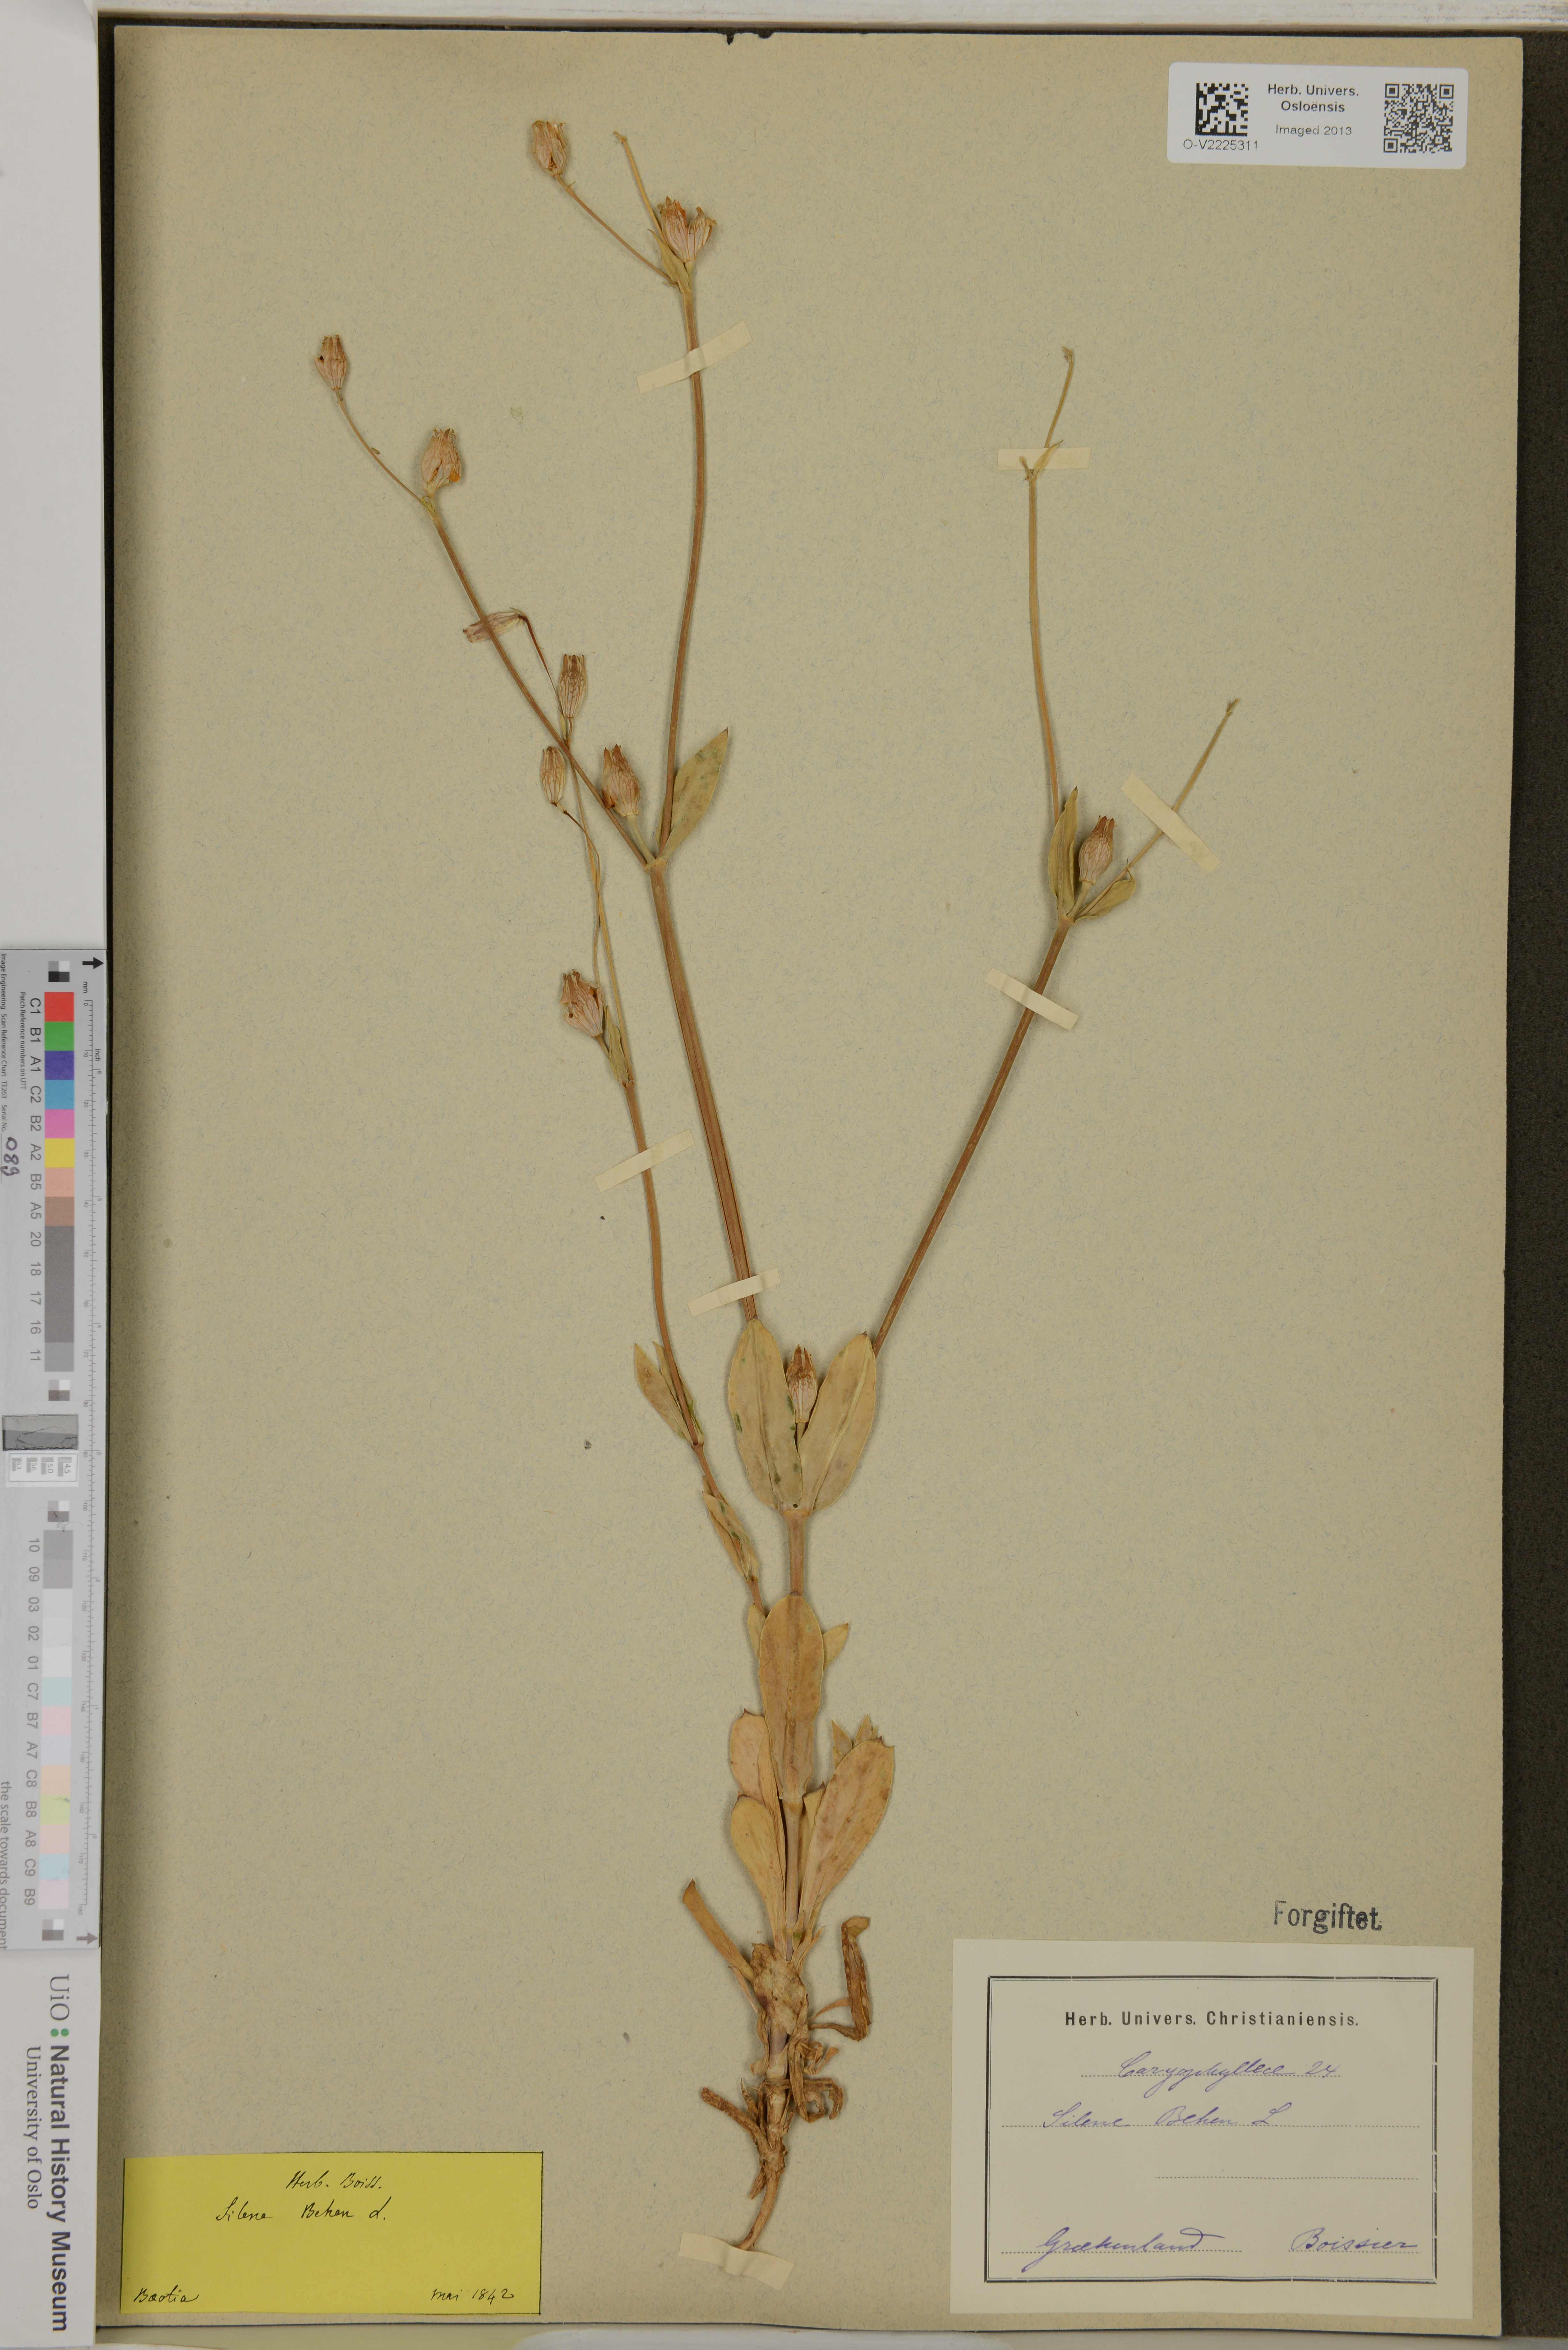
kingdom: Plantae
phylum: Tracheophyta
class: Magnoliopsida
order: Caryophyllales
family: Caryophyllaceae
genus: Silene
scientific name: Silene behen
